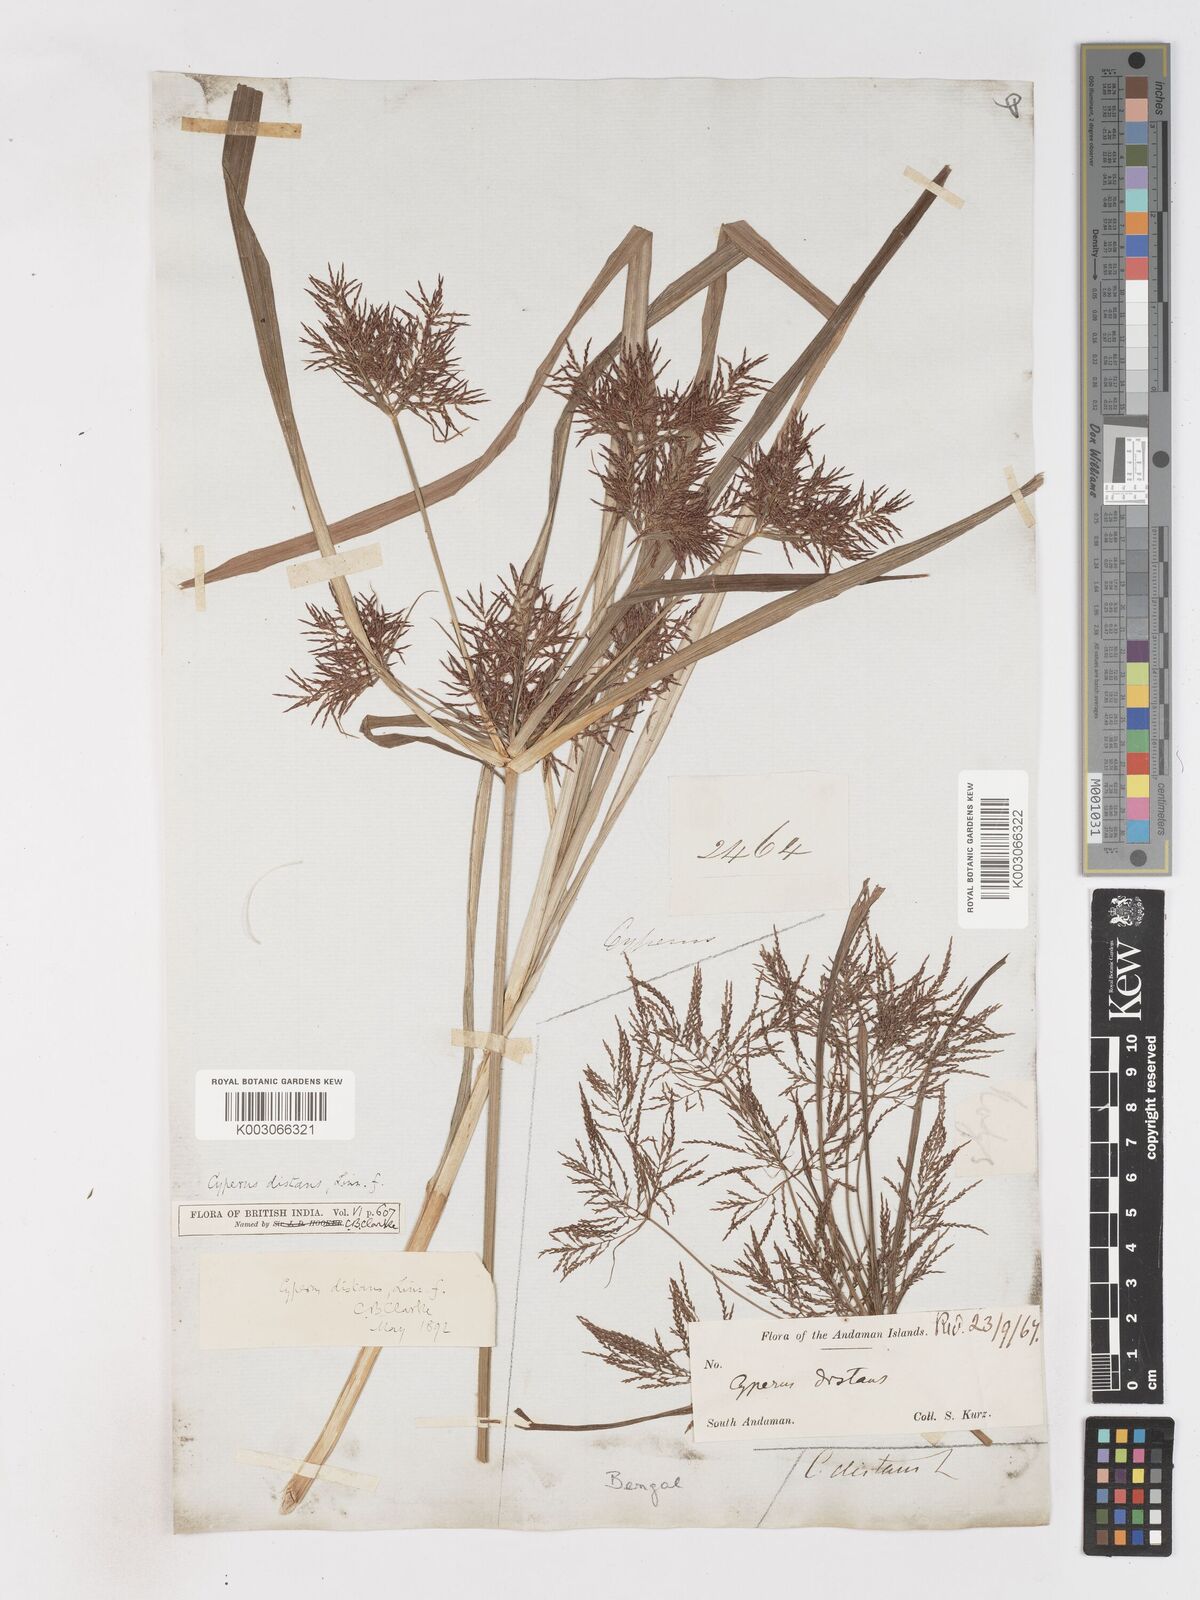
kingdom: Plantae
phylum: Tracheophyta
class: Liliopsida
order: Poales
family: Cyperaceae
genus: Cyperus
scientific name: Cyperus distans
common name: Slender cyperus
